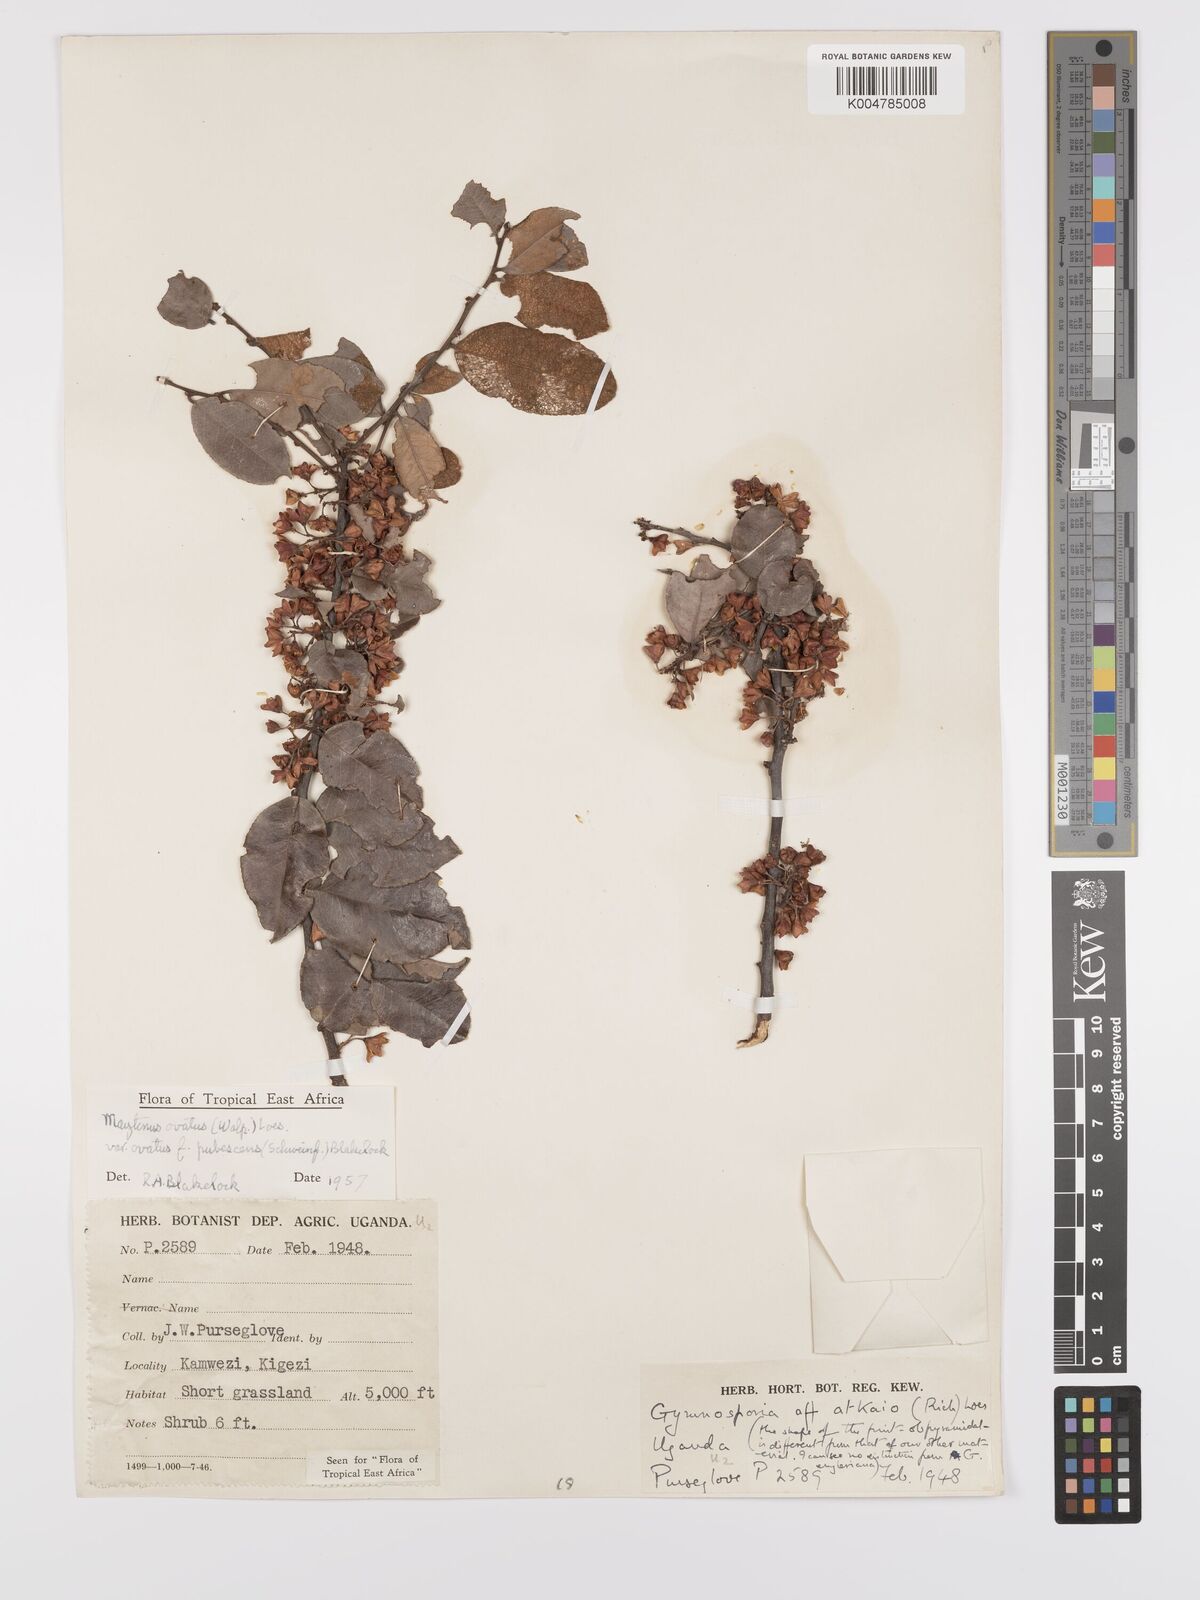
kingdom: Plantae
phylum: Tracheophyta
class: Magnoliopsida
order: Celastrales
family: Celastraceae
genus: Gymnosporia
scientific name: Gymnosporia buchananii
